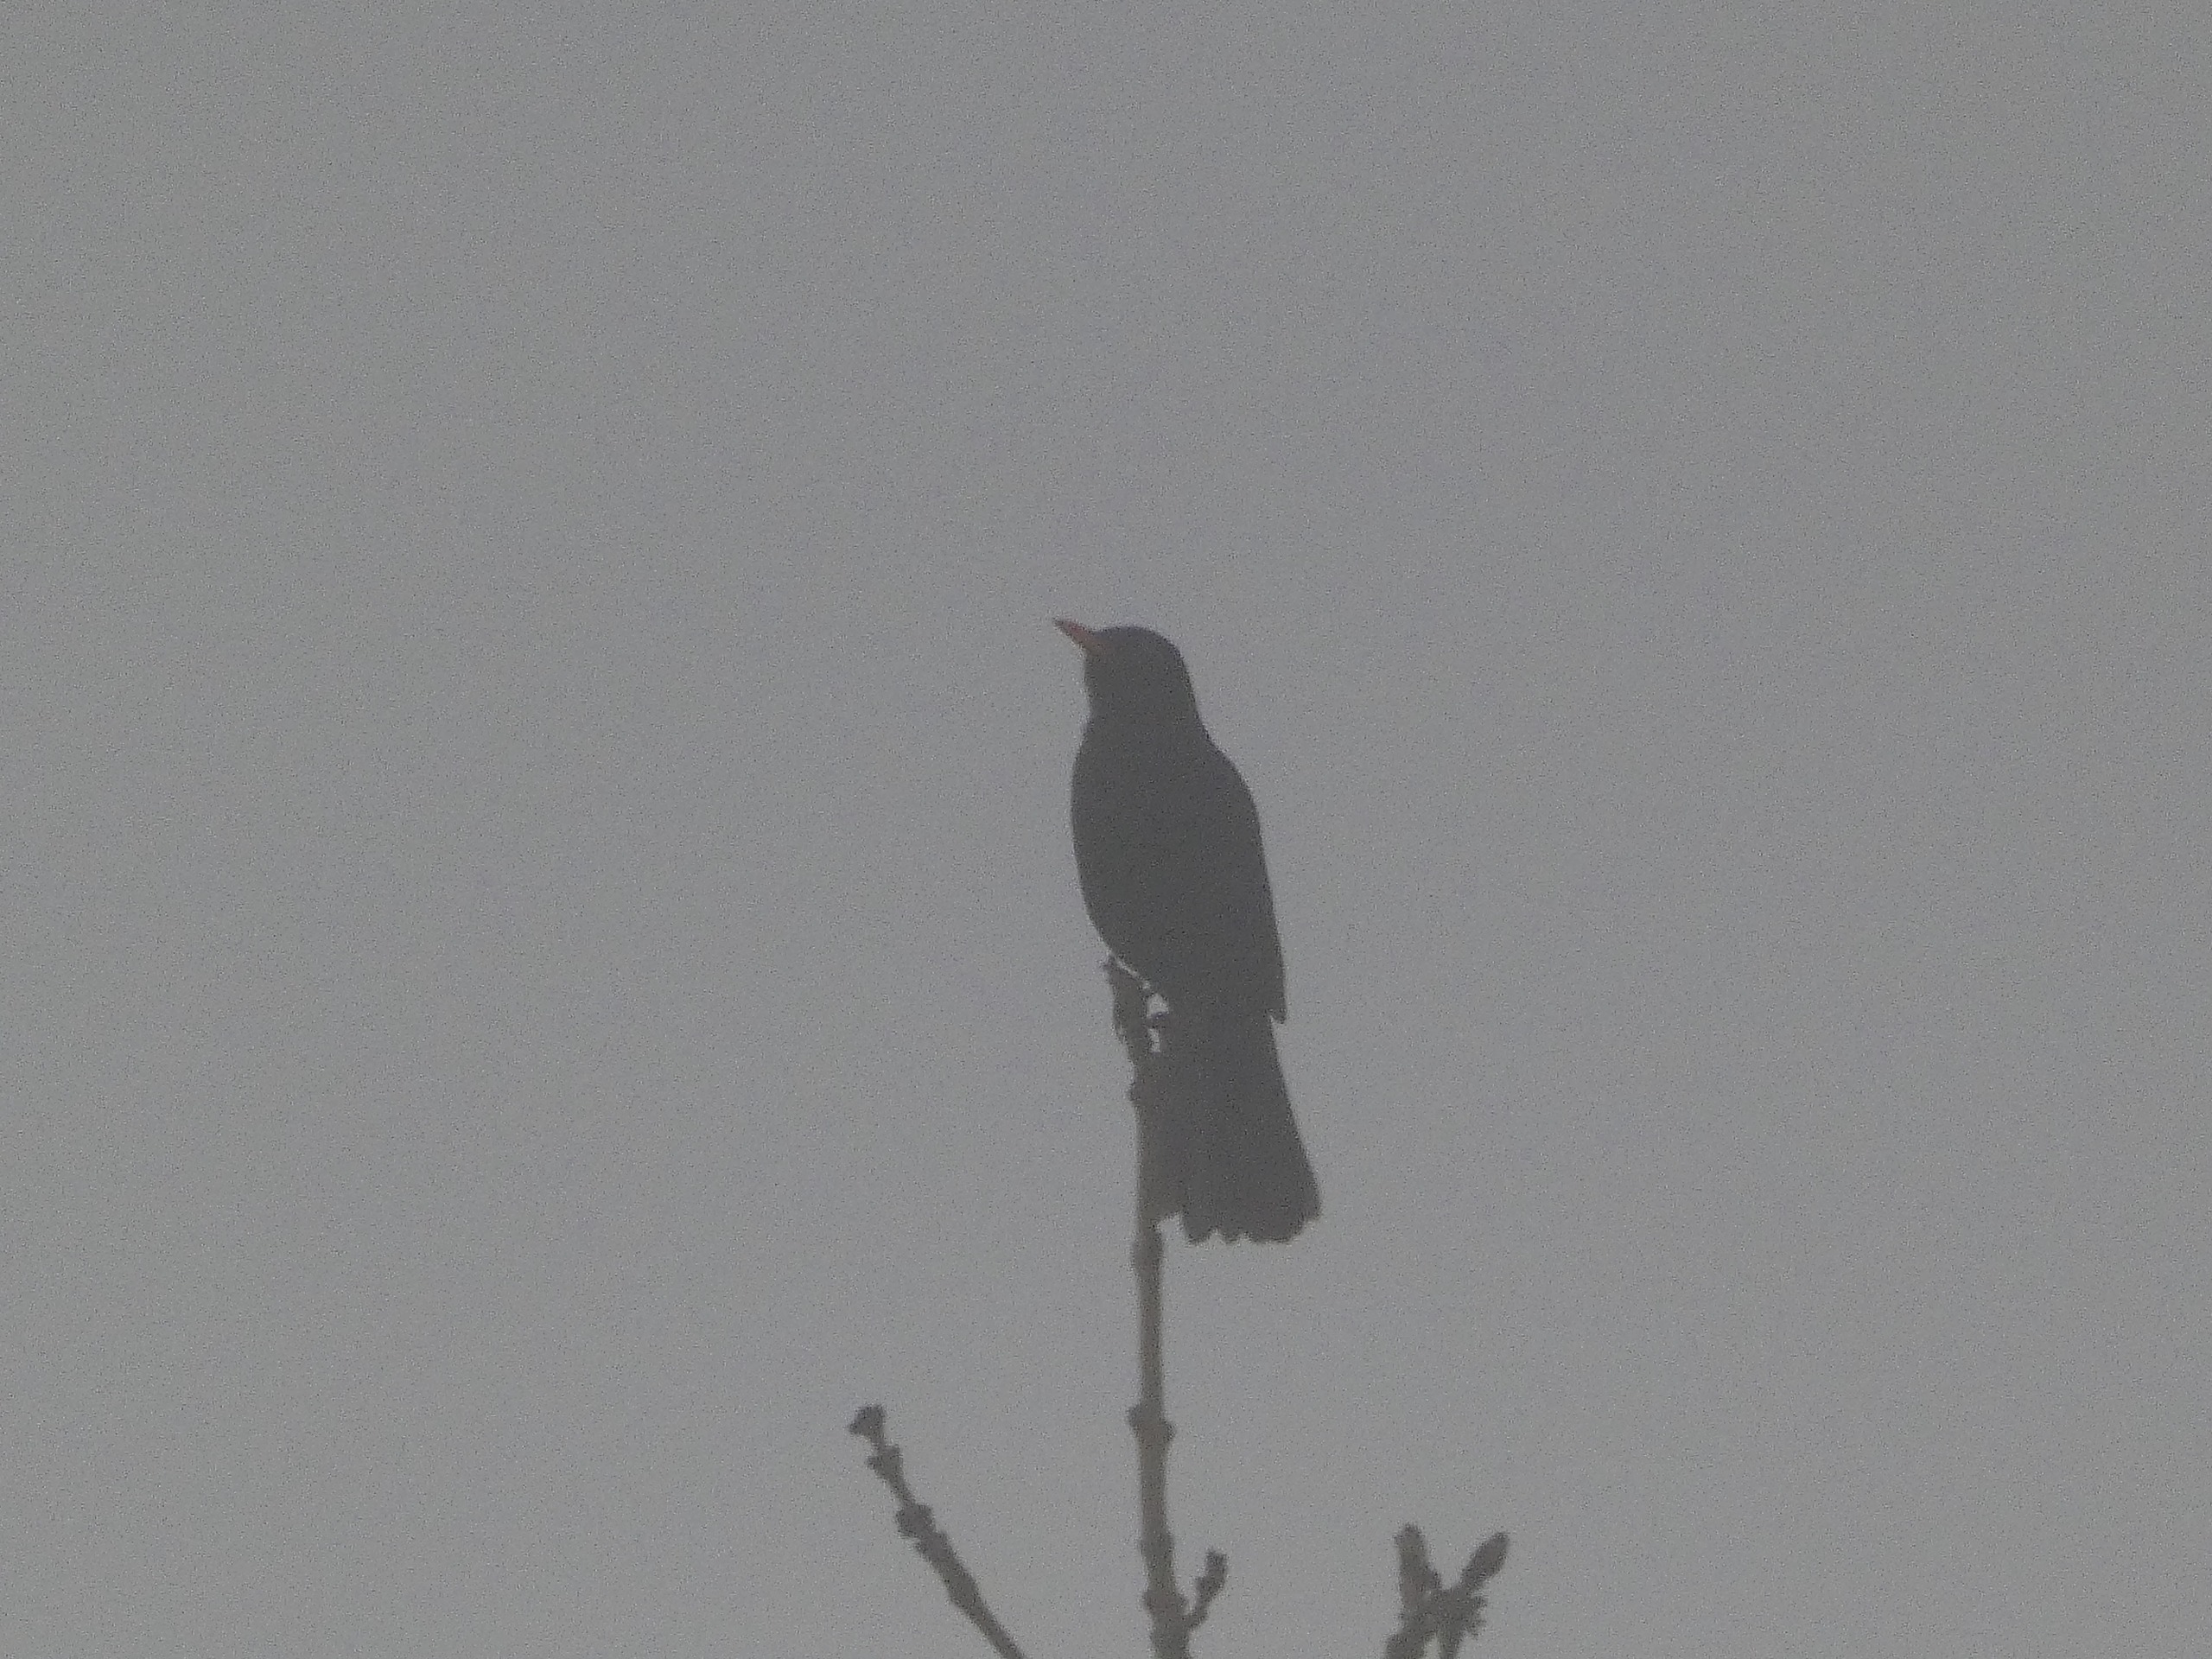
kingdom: Animalia
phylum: Chordata
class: Aves
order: Passeriformes
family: Turdidae
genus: Turdus
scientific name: Turdus merula
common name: Solsort
